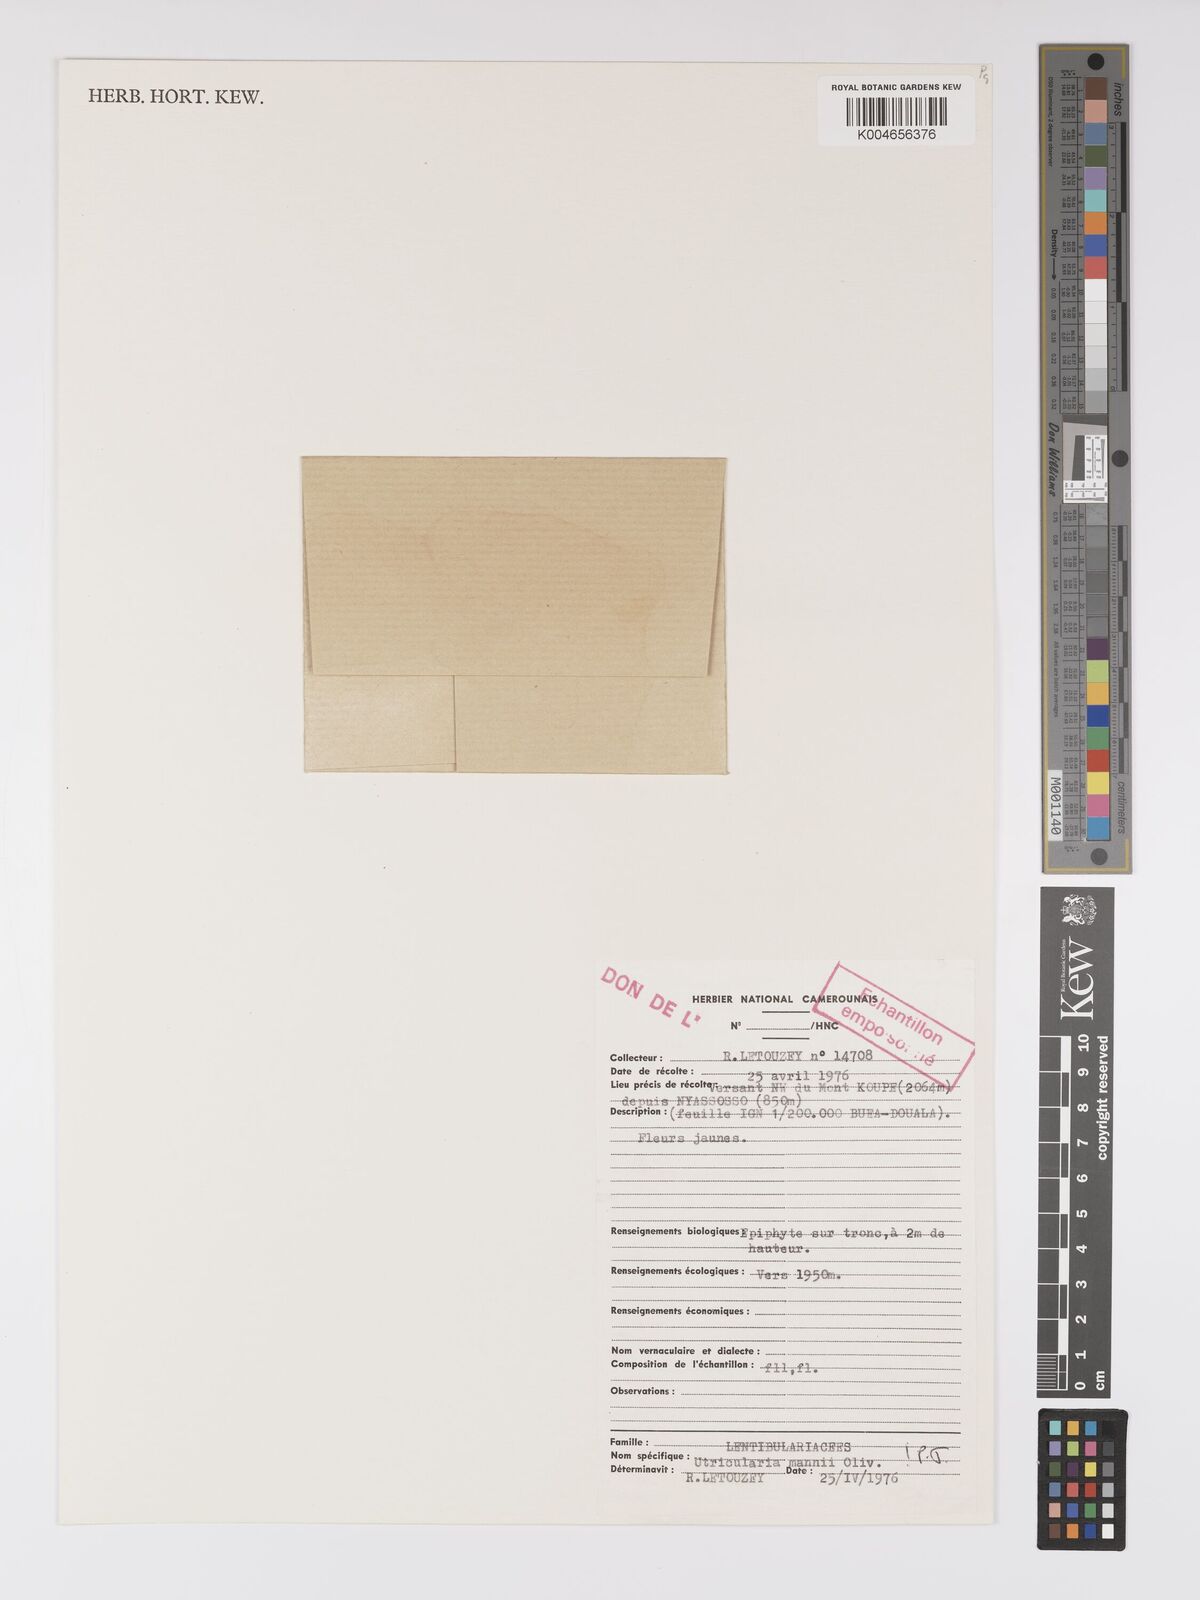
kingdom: Plantae
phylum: Tracheophyta
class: Magnoliopsida
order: Lamiales
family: Lentibulariaceae
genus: Utricularia
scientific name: Utricularia mannii
